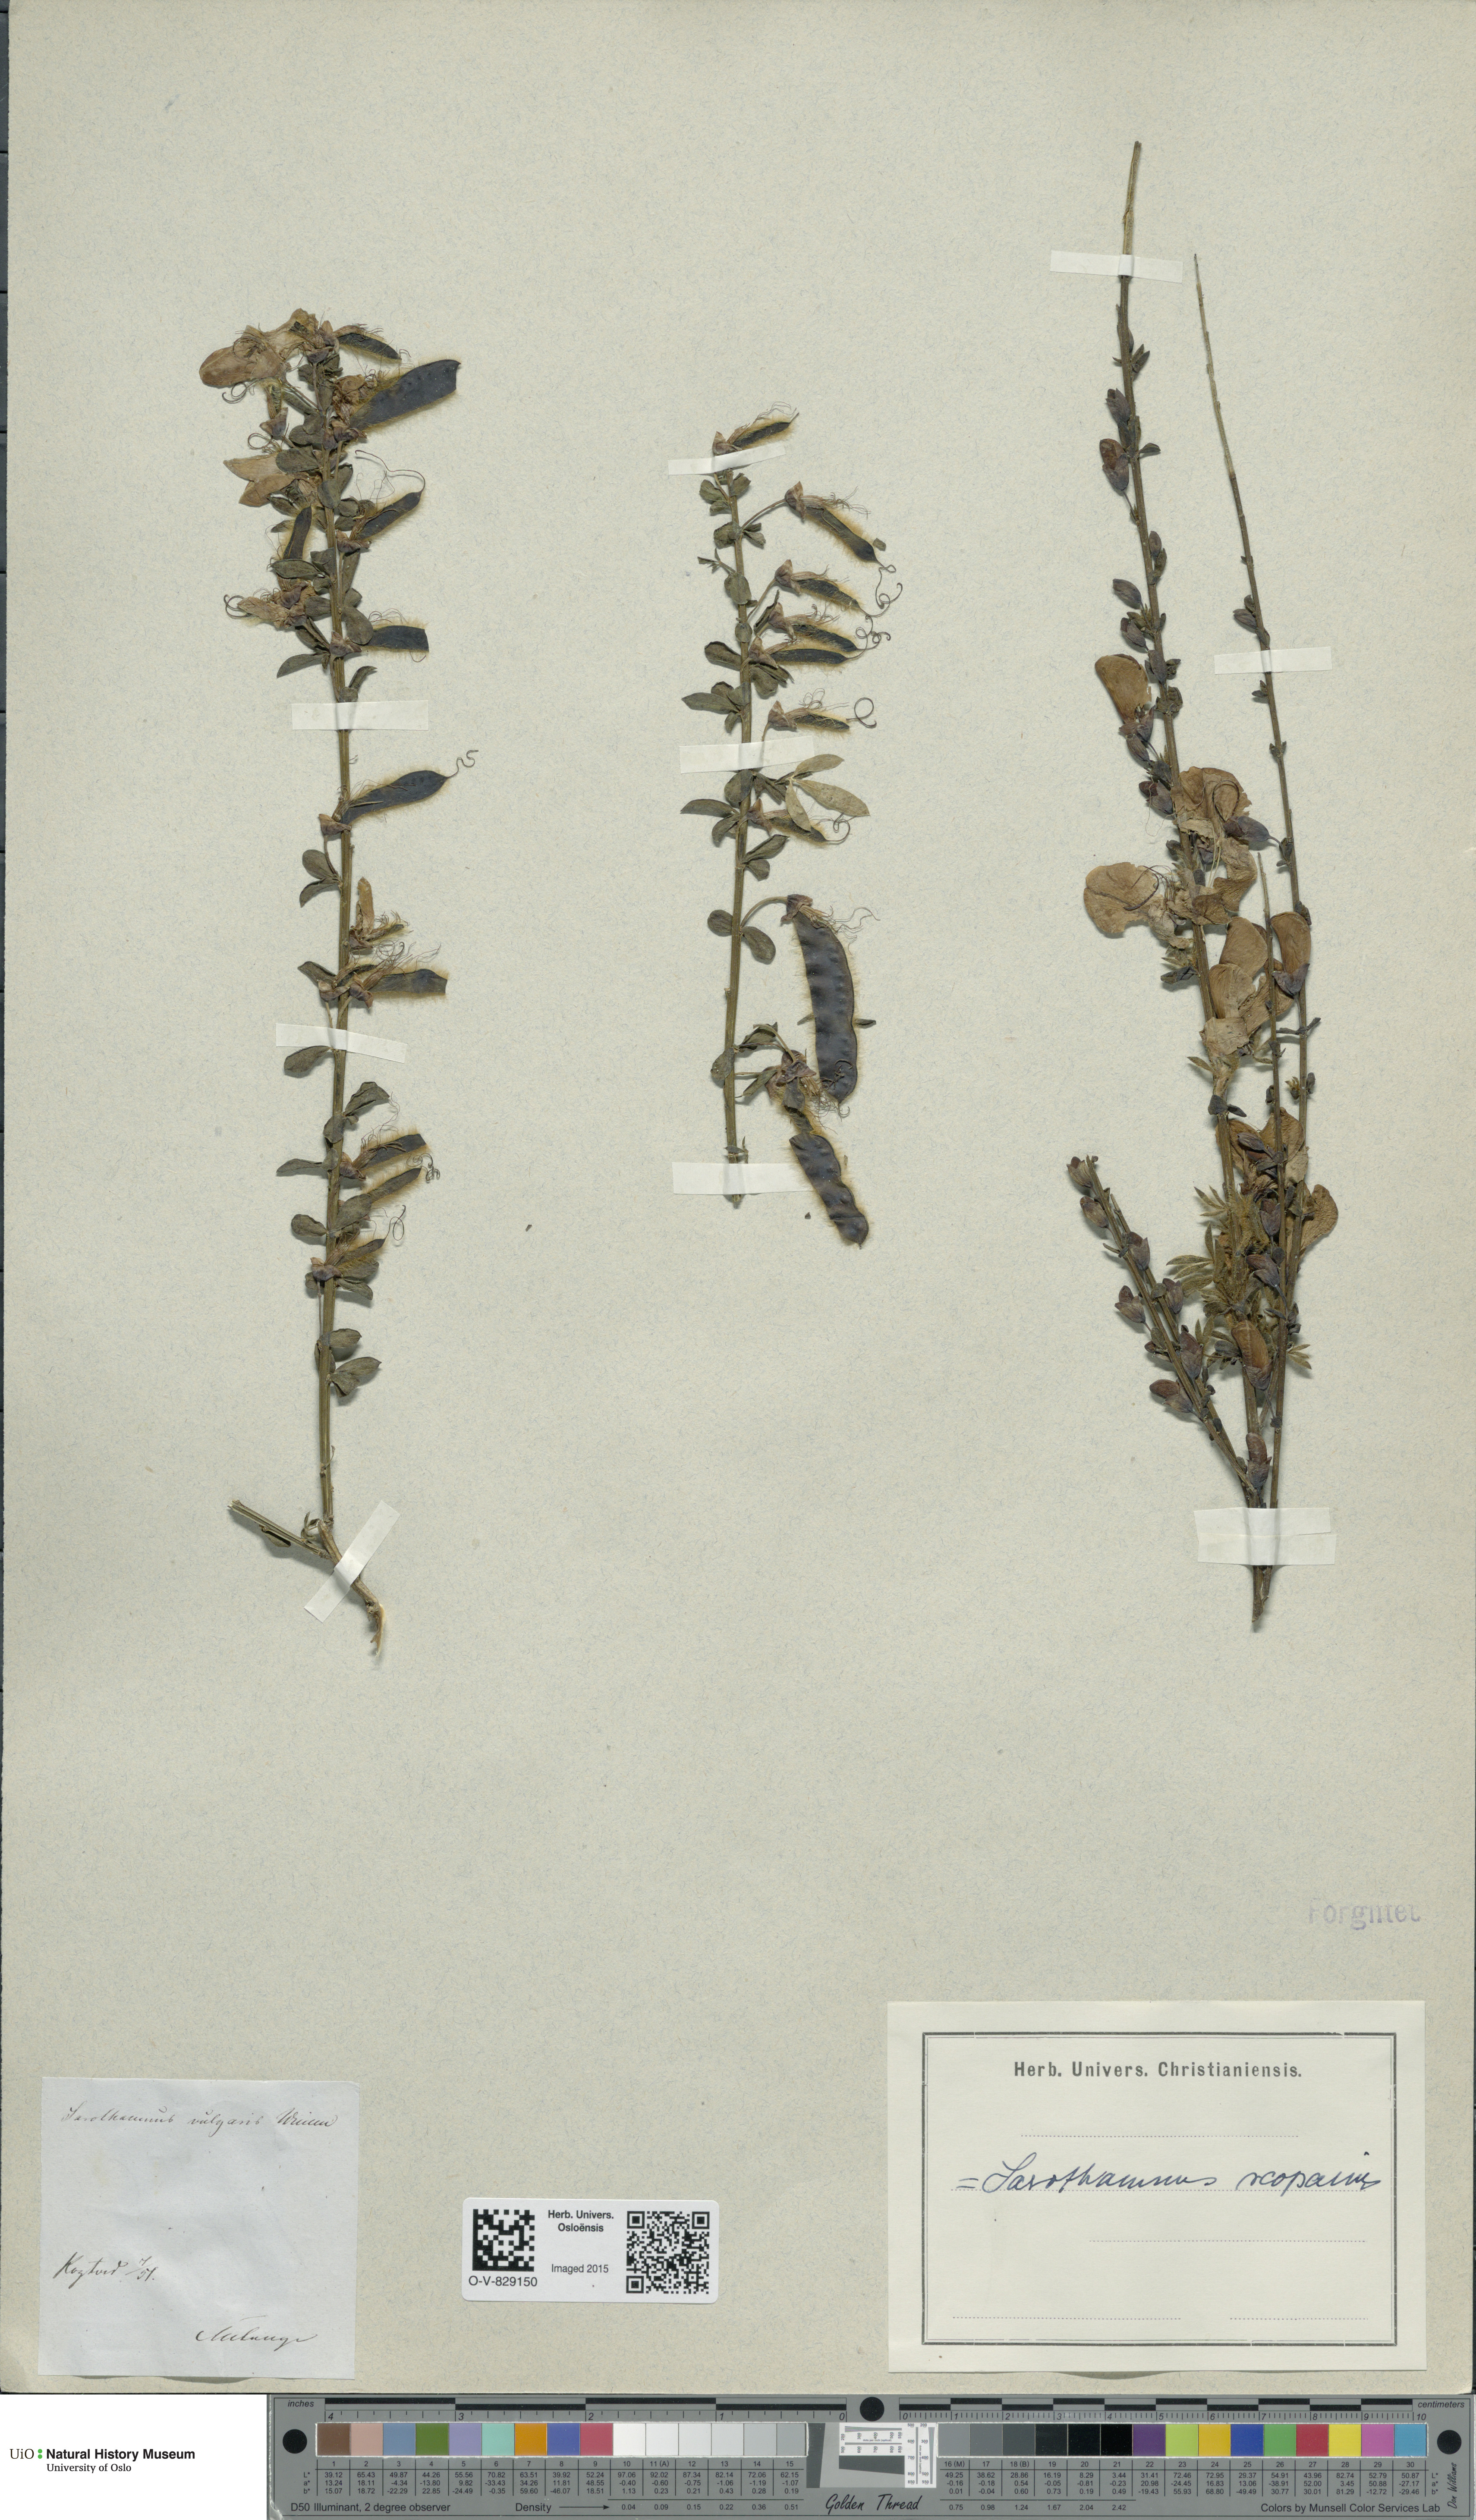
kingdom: Plantae
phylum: Tracheophyta
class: Magnoliopsida
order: Fabales
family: Fabaceae
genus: Cytisus
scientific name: Cytisus scoparius
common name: Scotch broom
